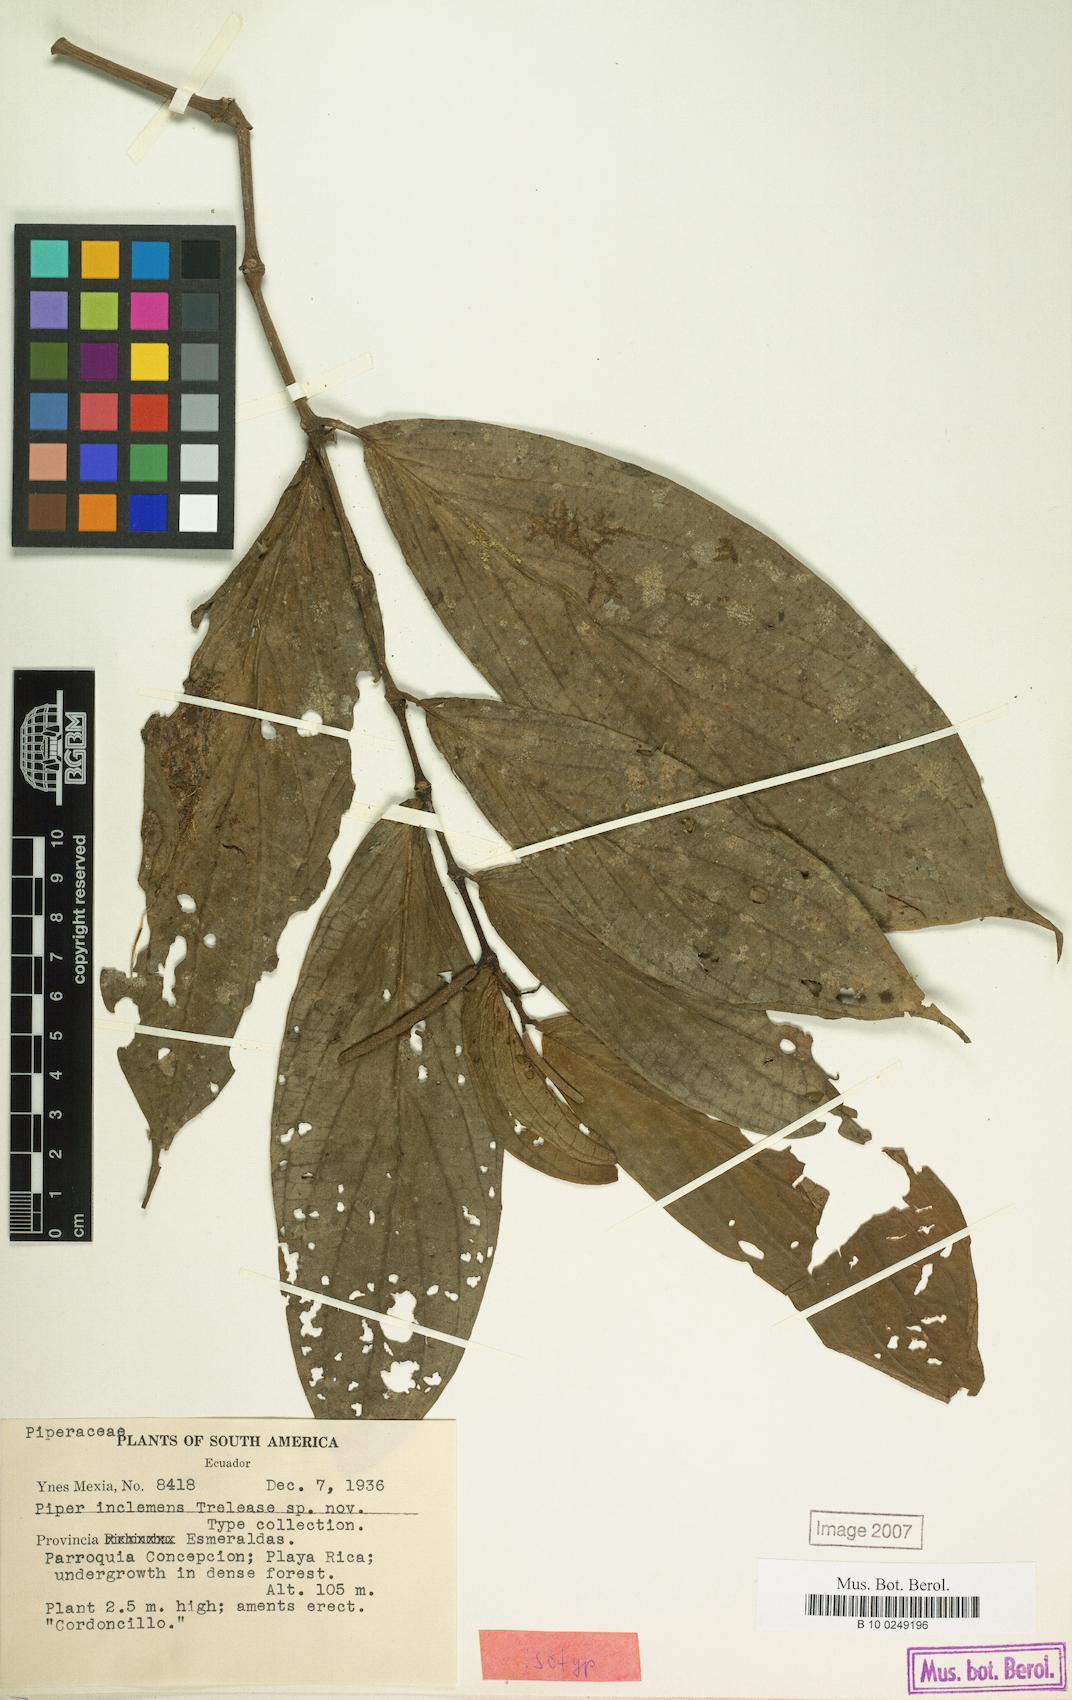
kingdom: Plantae
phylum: Tracheophyta
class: Magnoliopsida
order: Piperales
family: Piperaceae
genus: Piper
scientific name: Piper inclemens
